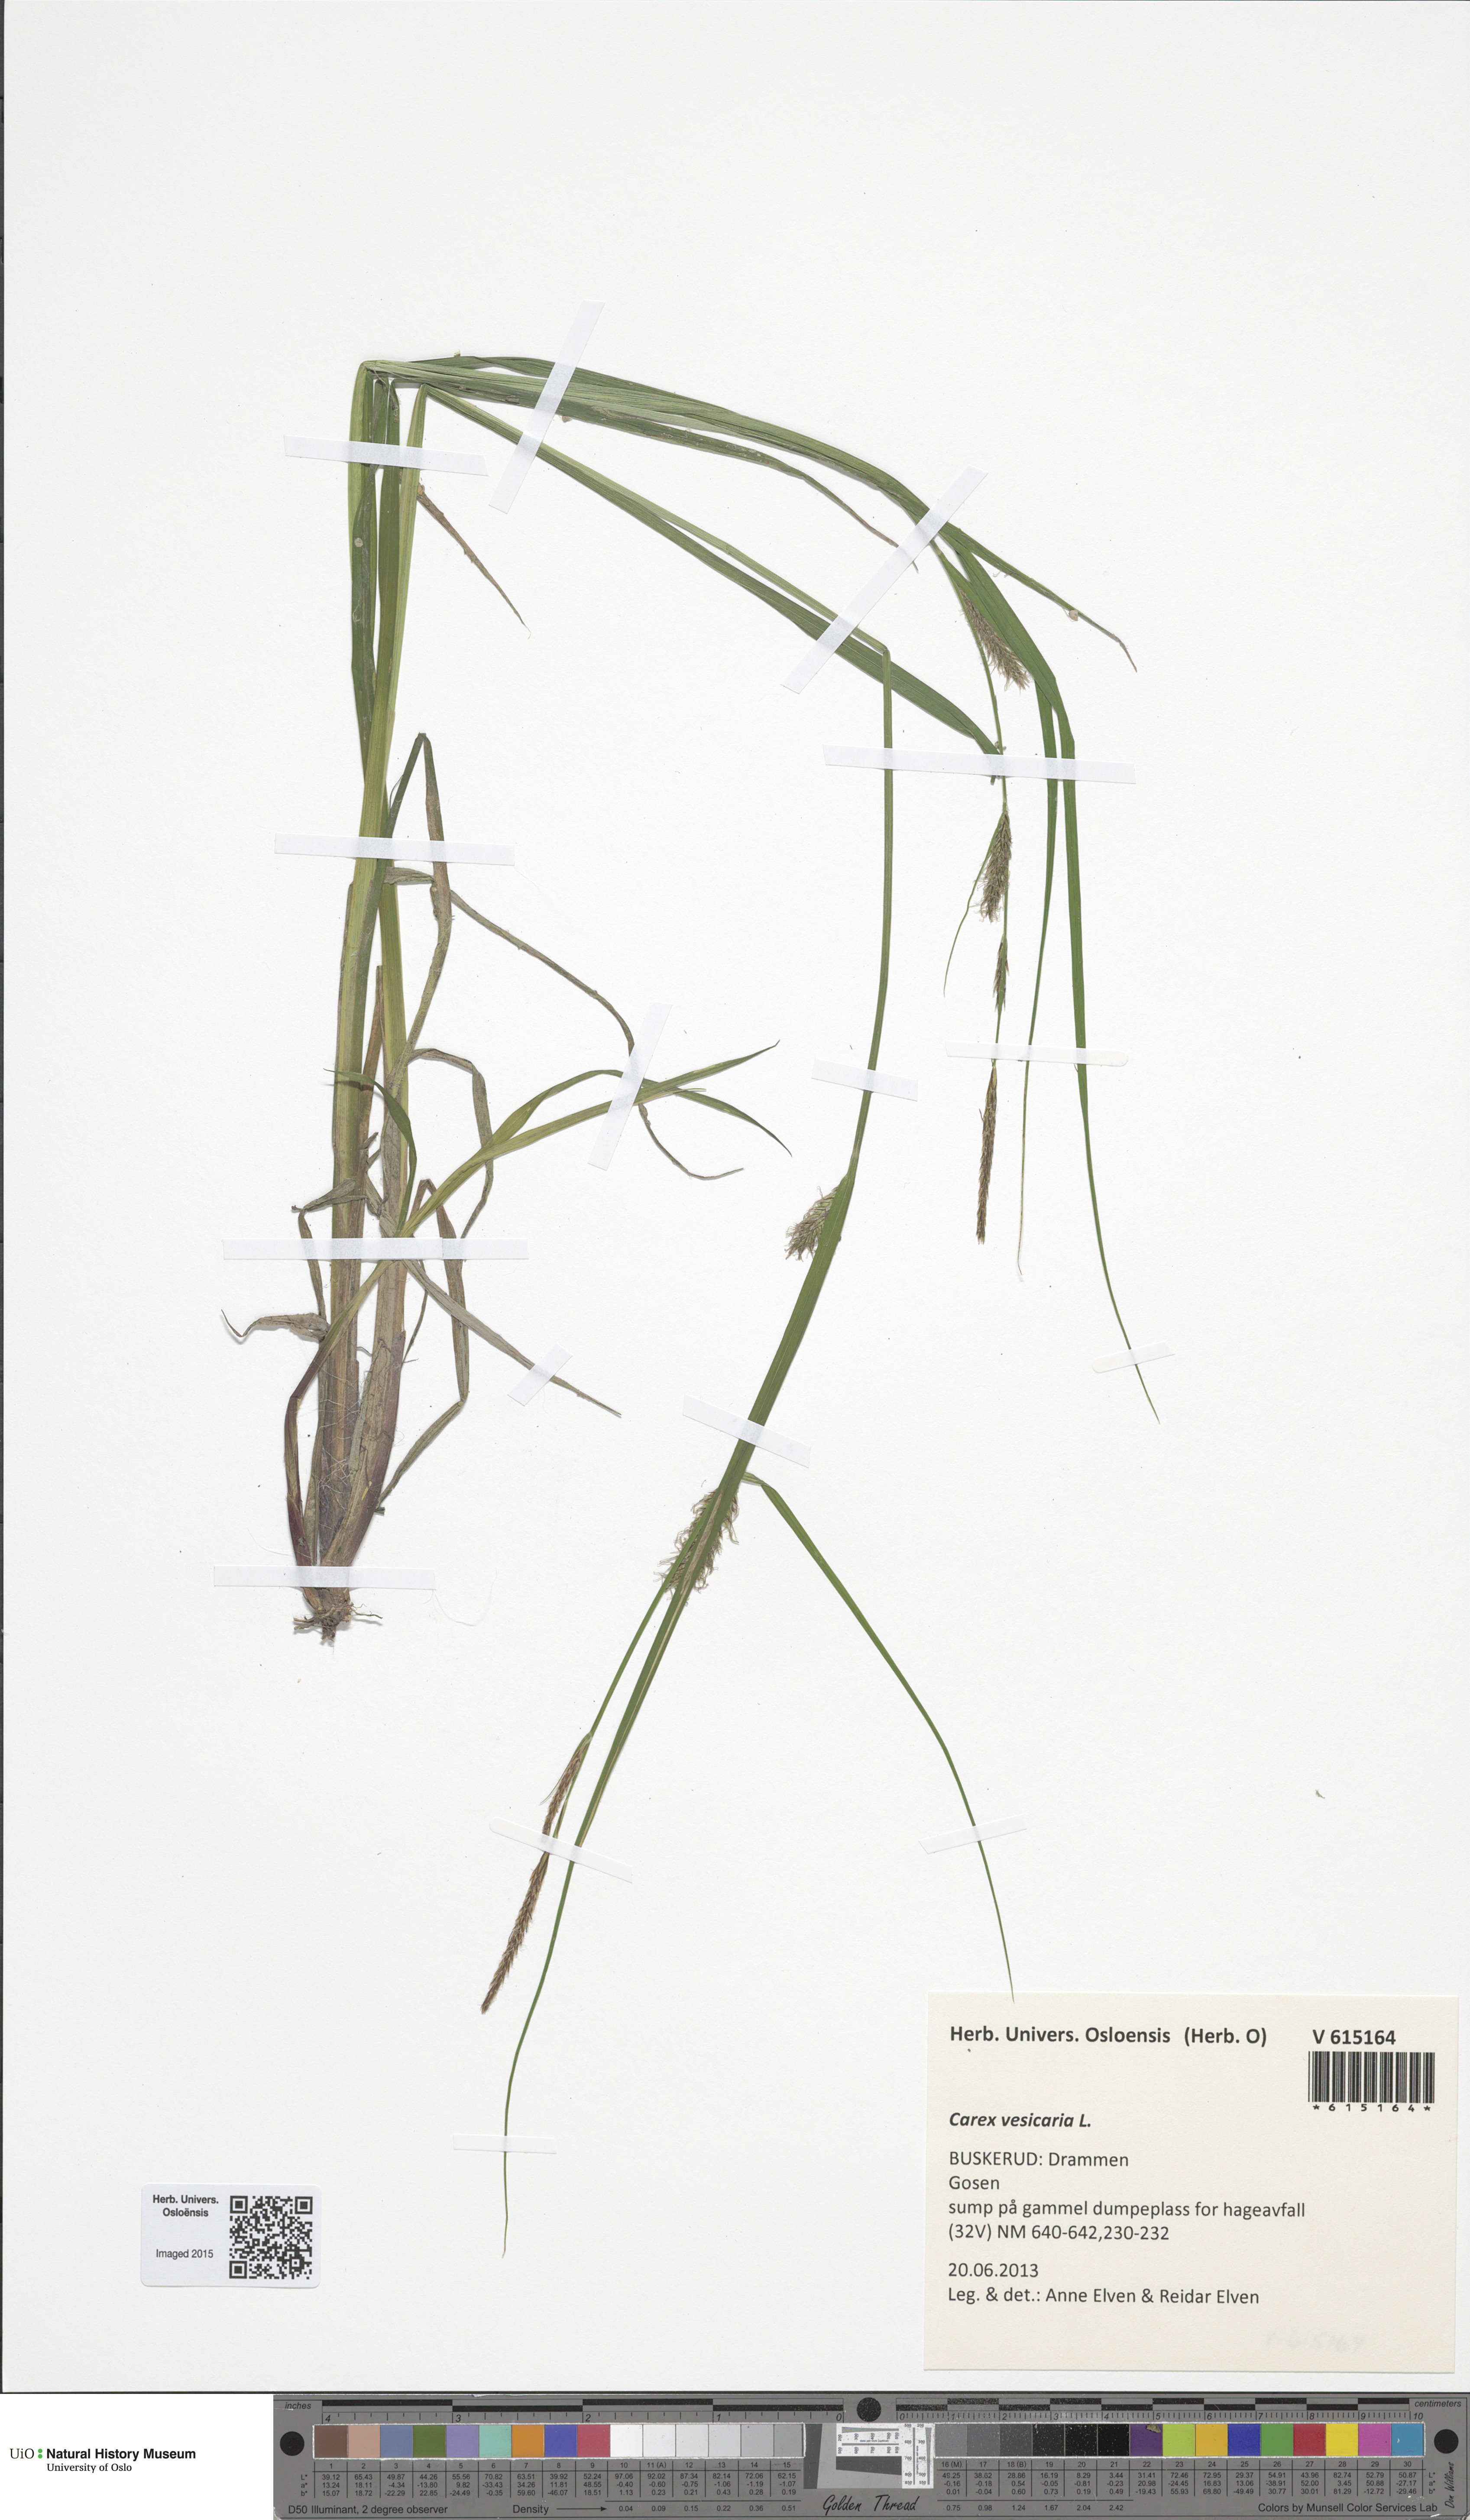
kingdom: Plantae
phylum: Tracheophyta
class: Liliopsida
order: Poales
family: Cyperaceae
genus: Carex
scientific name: Carex vesicaria
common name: Bladder-sedge
